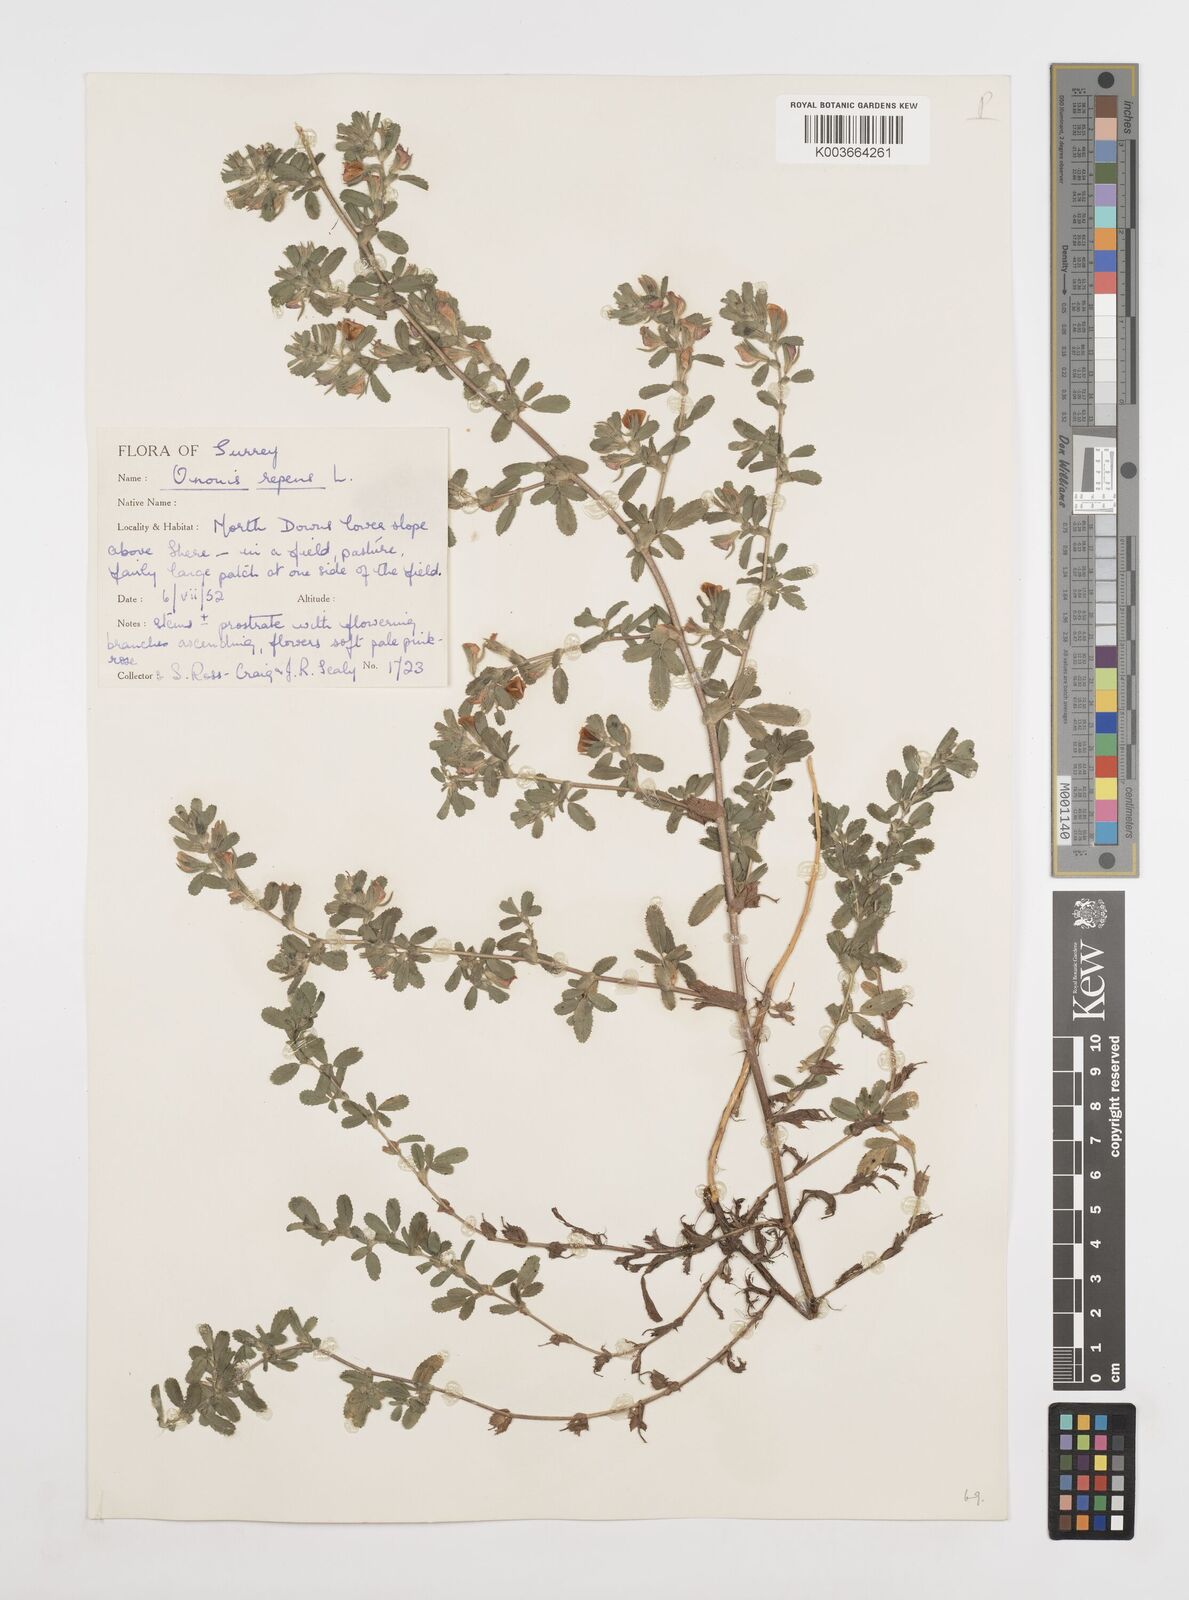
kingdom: Plantae
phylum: Tracheophyta
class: Magnoliopsida
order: Fabales
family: Fabaceae
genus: Ononis
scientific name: Ononis spinosa
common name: Spiny restharrow
